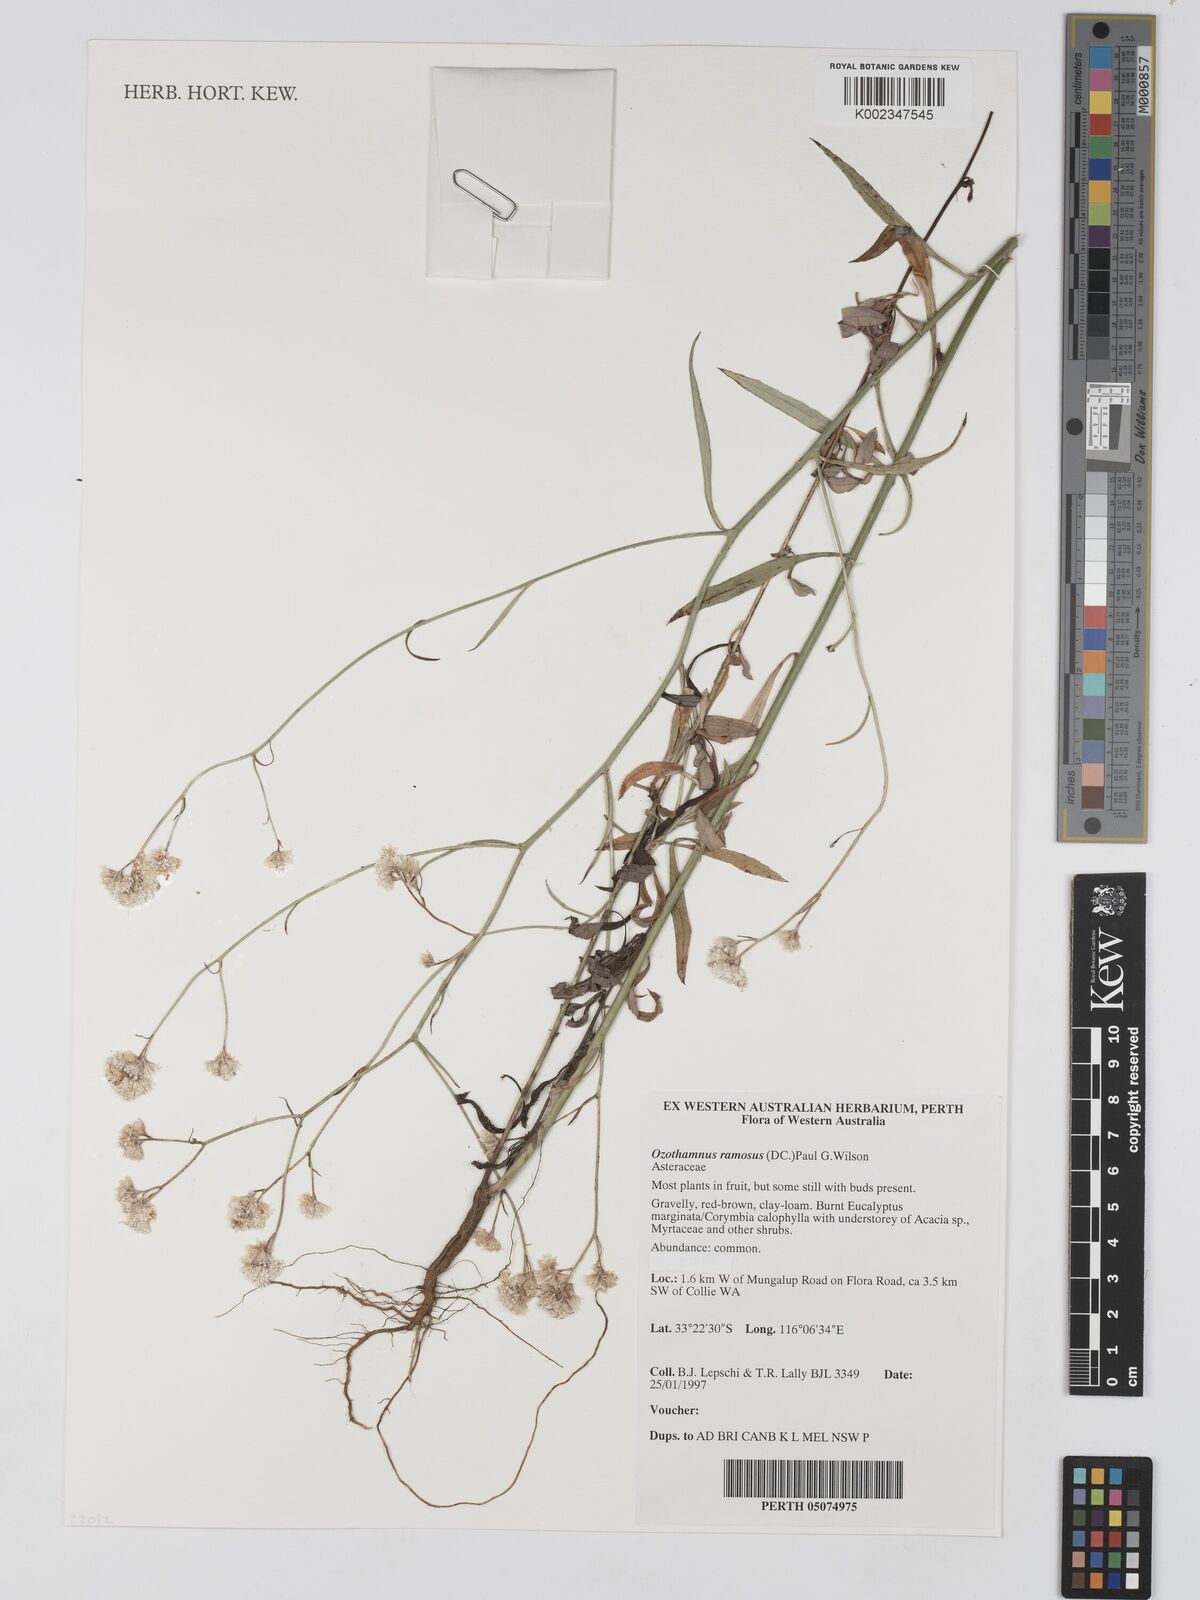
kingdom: Plantae
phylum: Tracheophyta
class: Magnoliopsida
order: Asterales
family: Asteraceae
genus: Pithocarpa
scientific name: Pithocarpa ramosa
